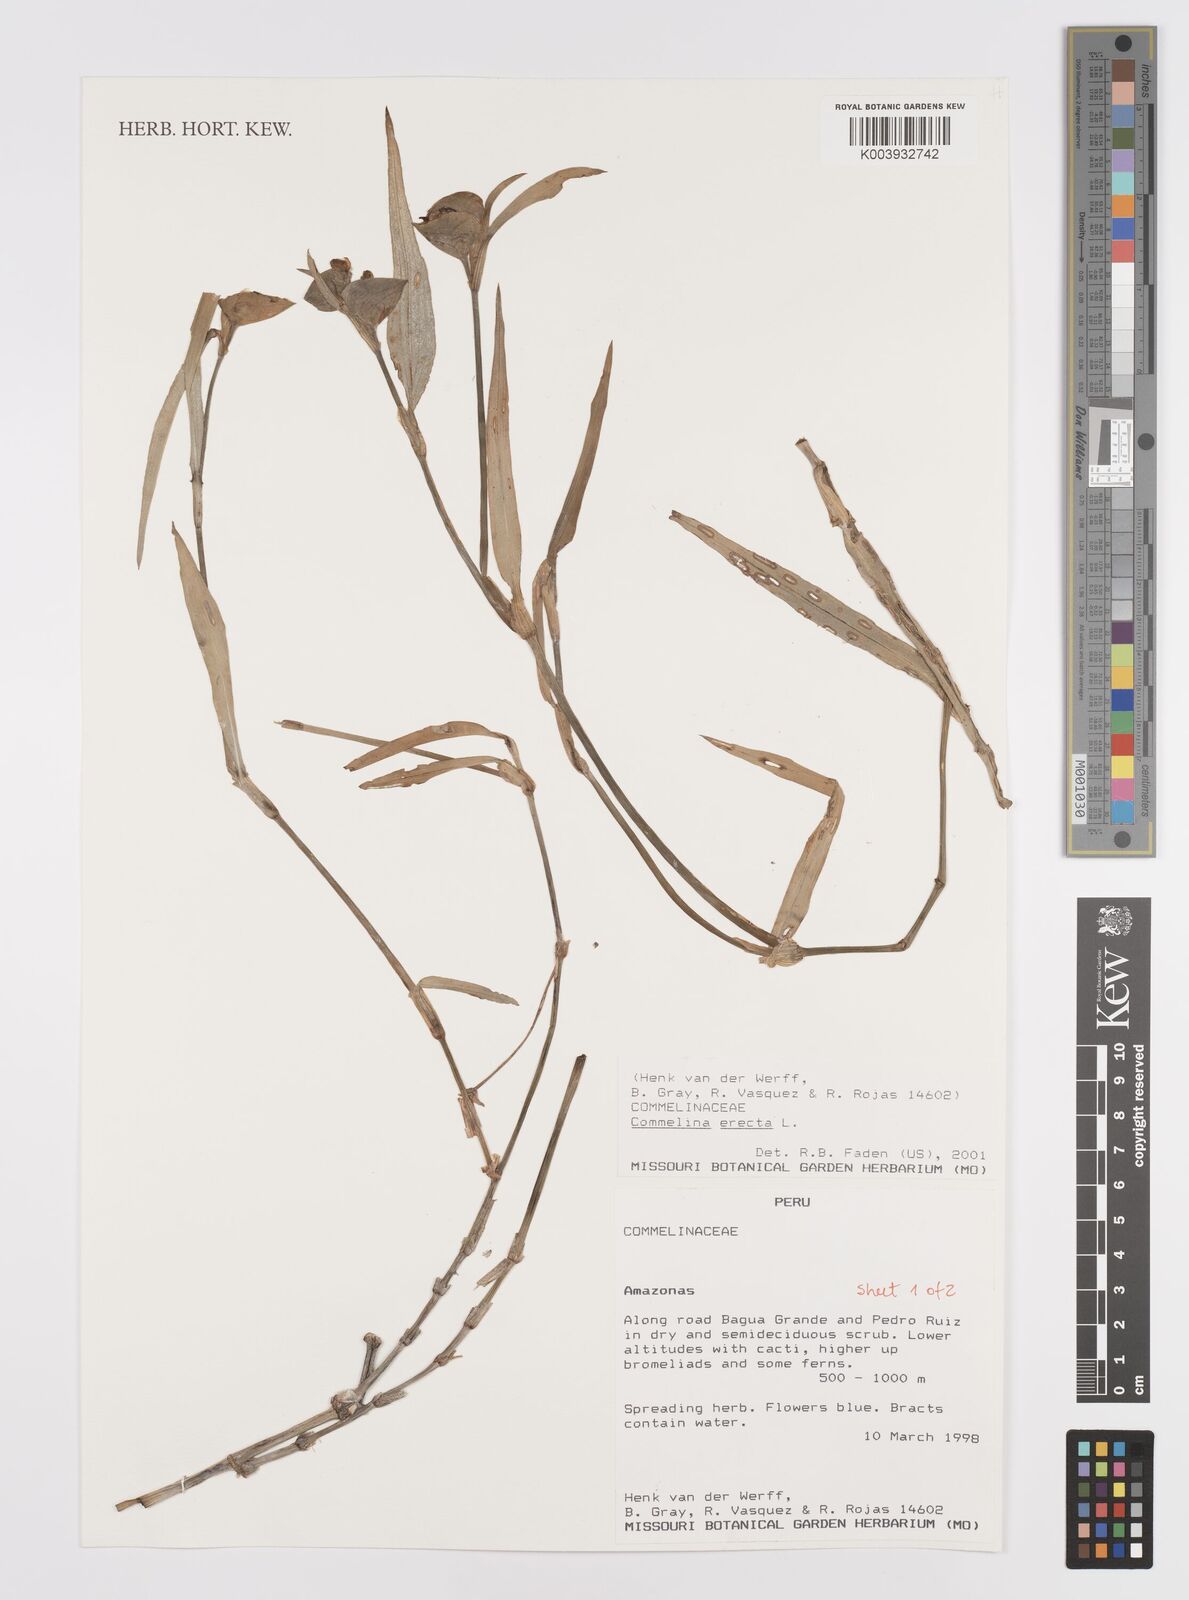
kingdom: Plantae
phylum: Tracheophyta
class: Liliopsida
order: Commelinales
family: Commelinaceae
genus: Commelina
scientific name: Commelina erecta
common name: Blousel blommetjie
